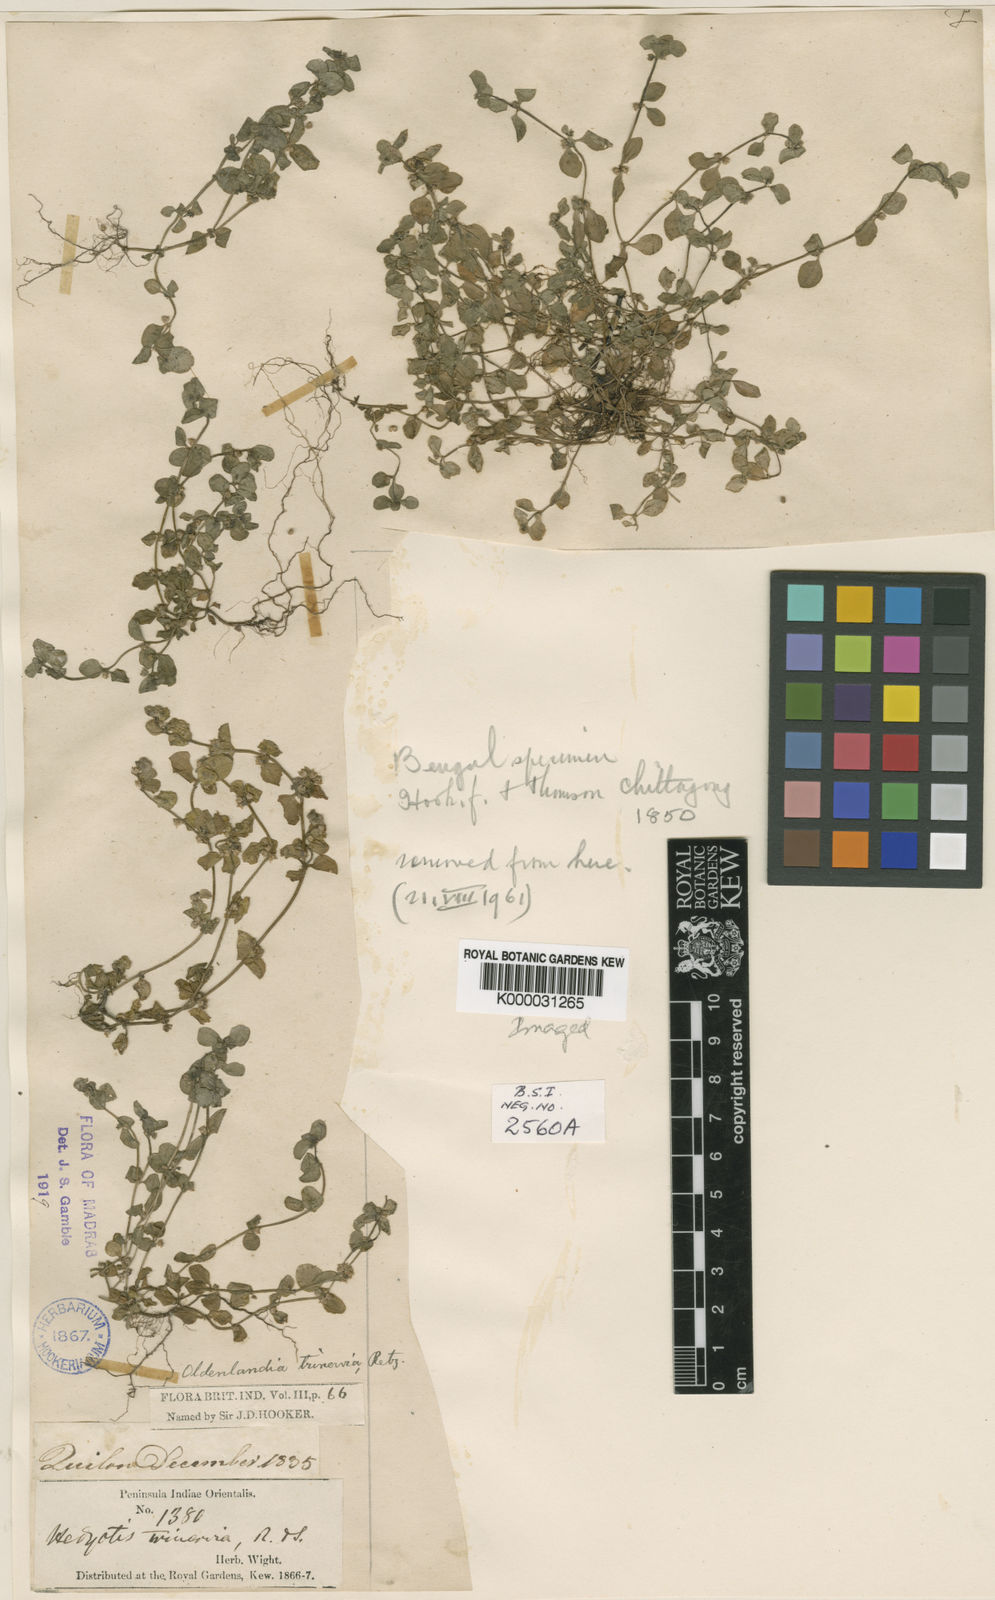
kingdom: Plantae
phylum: Tracheophyta
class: Magnoliopsida
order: Gentianales
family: Rubiaceae
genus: Edrastima
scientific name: Edrastima trinervia
